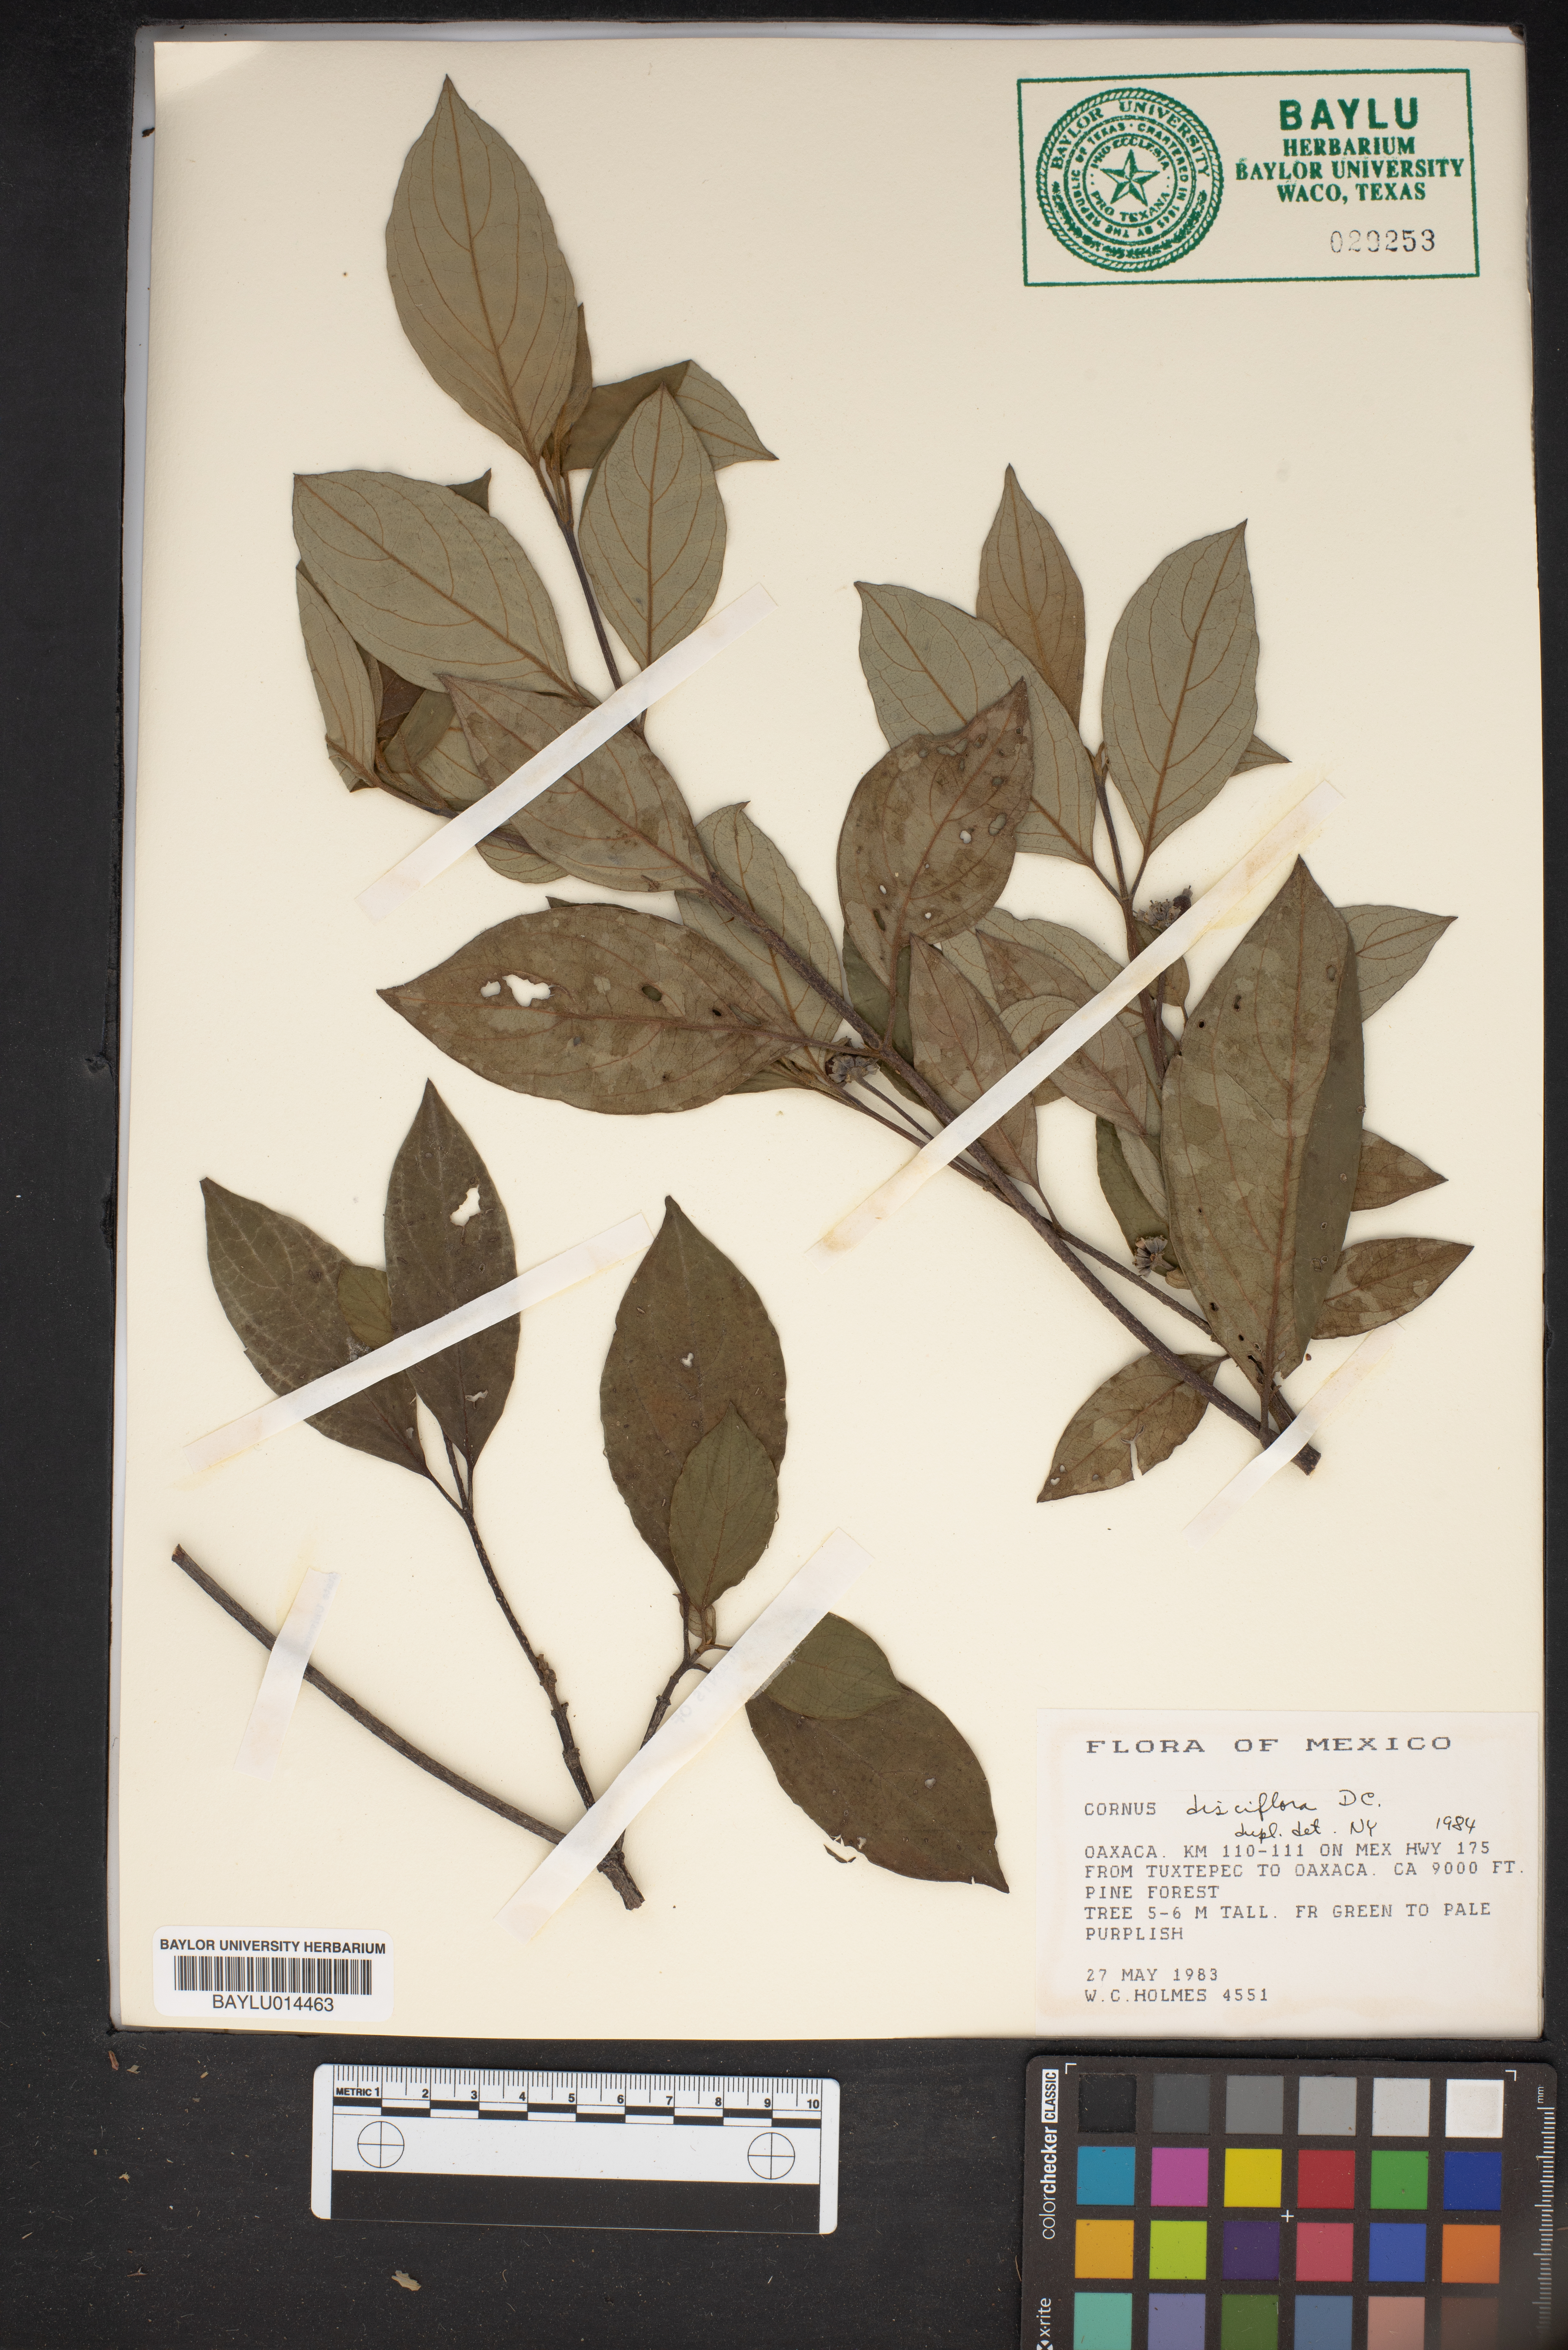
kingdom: Plantae
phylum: Tracheophyta
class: Magnoliopsida
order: Cornales
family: Cornaceae
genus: Cornus
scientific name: Cornus disciflora
